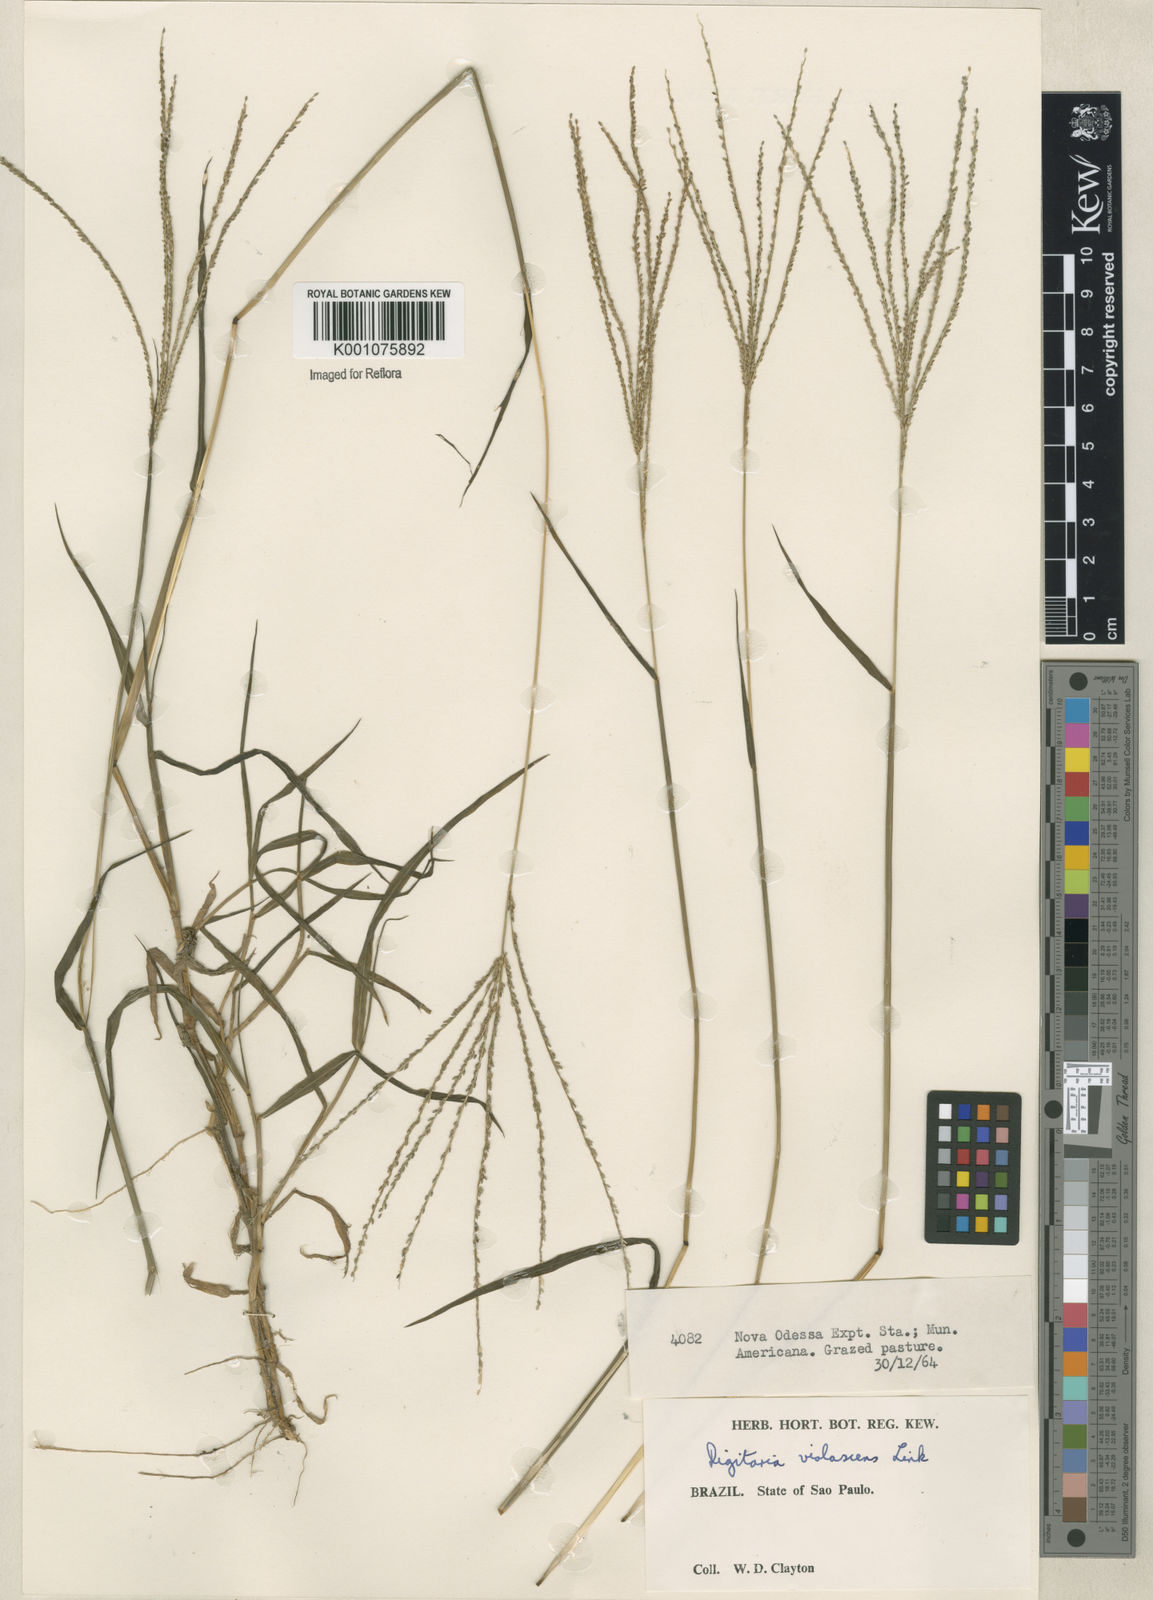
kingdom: Plantae
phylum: Tracheophyta
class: Liliopsida
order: Poales
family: Poaceae
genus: Digitaria
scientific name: Digitaria violascens
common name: Violet crabgrass
